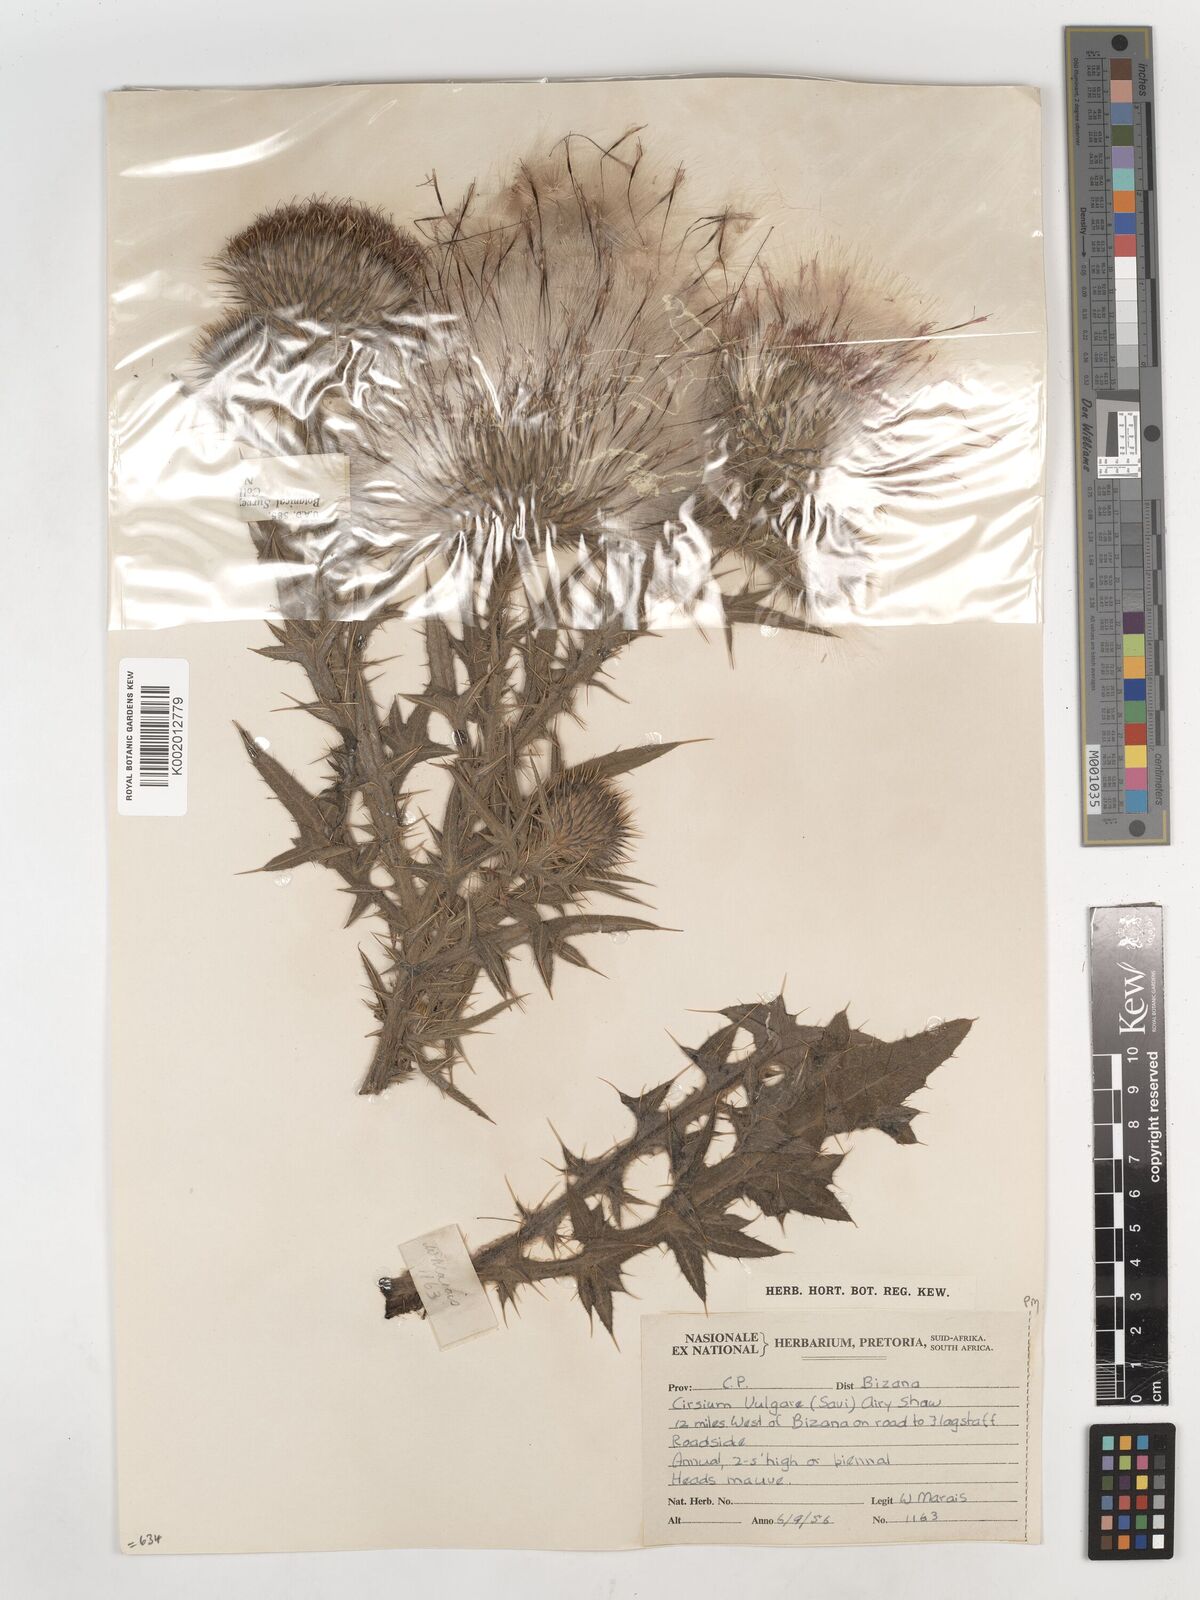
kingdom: Plantae
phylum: Tracheophyta
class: Magnoliopsida
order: Asterales
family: Asteraceae
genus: Cirsium
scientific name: Cirsium vulgare
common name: Bull thistle
